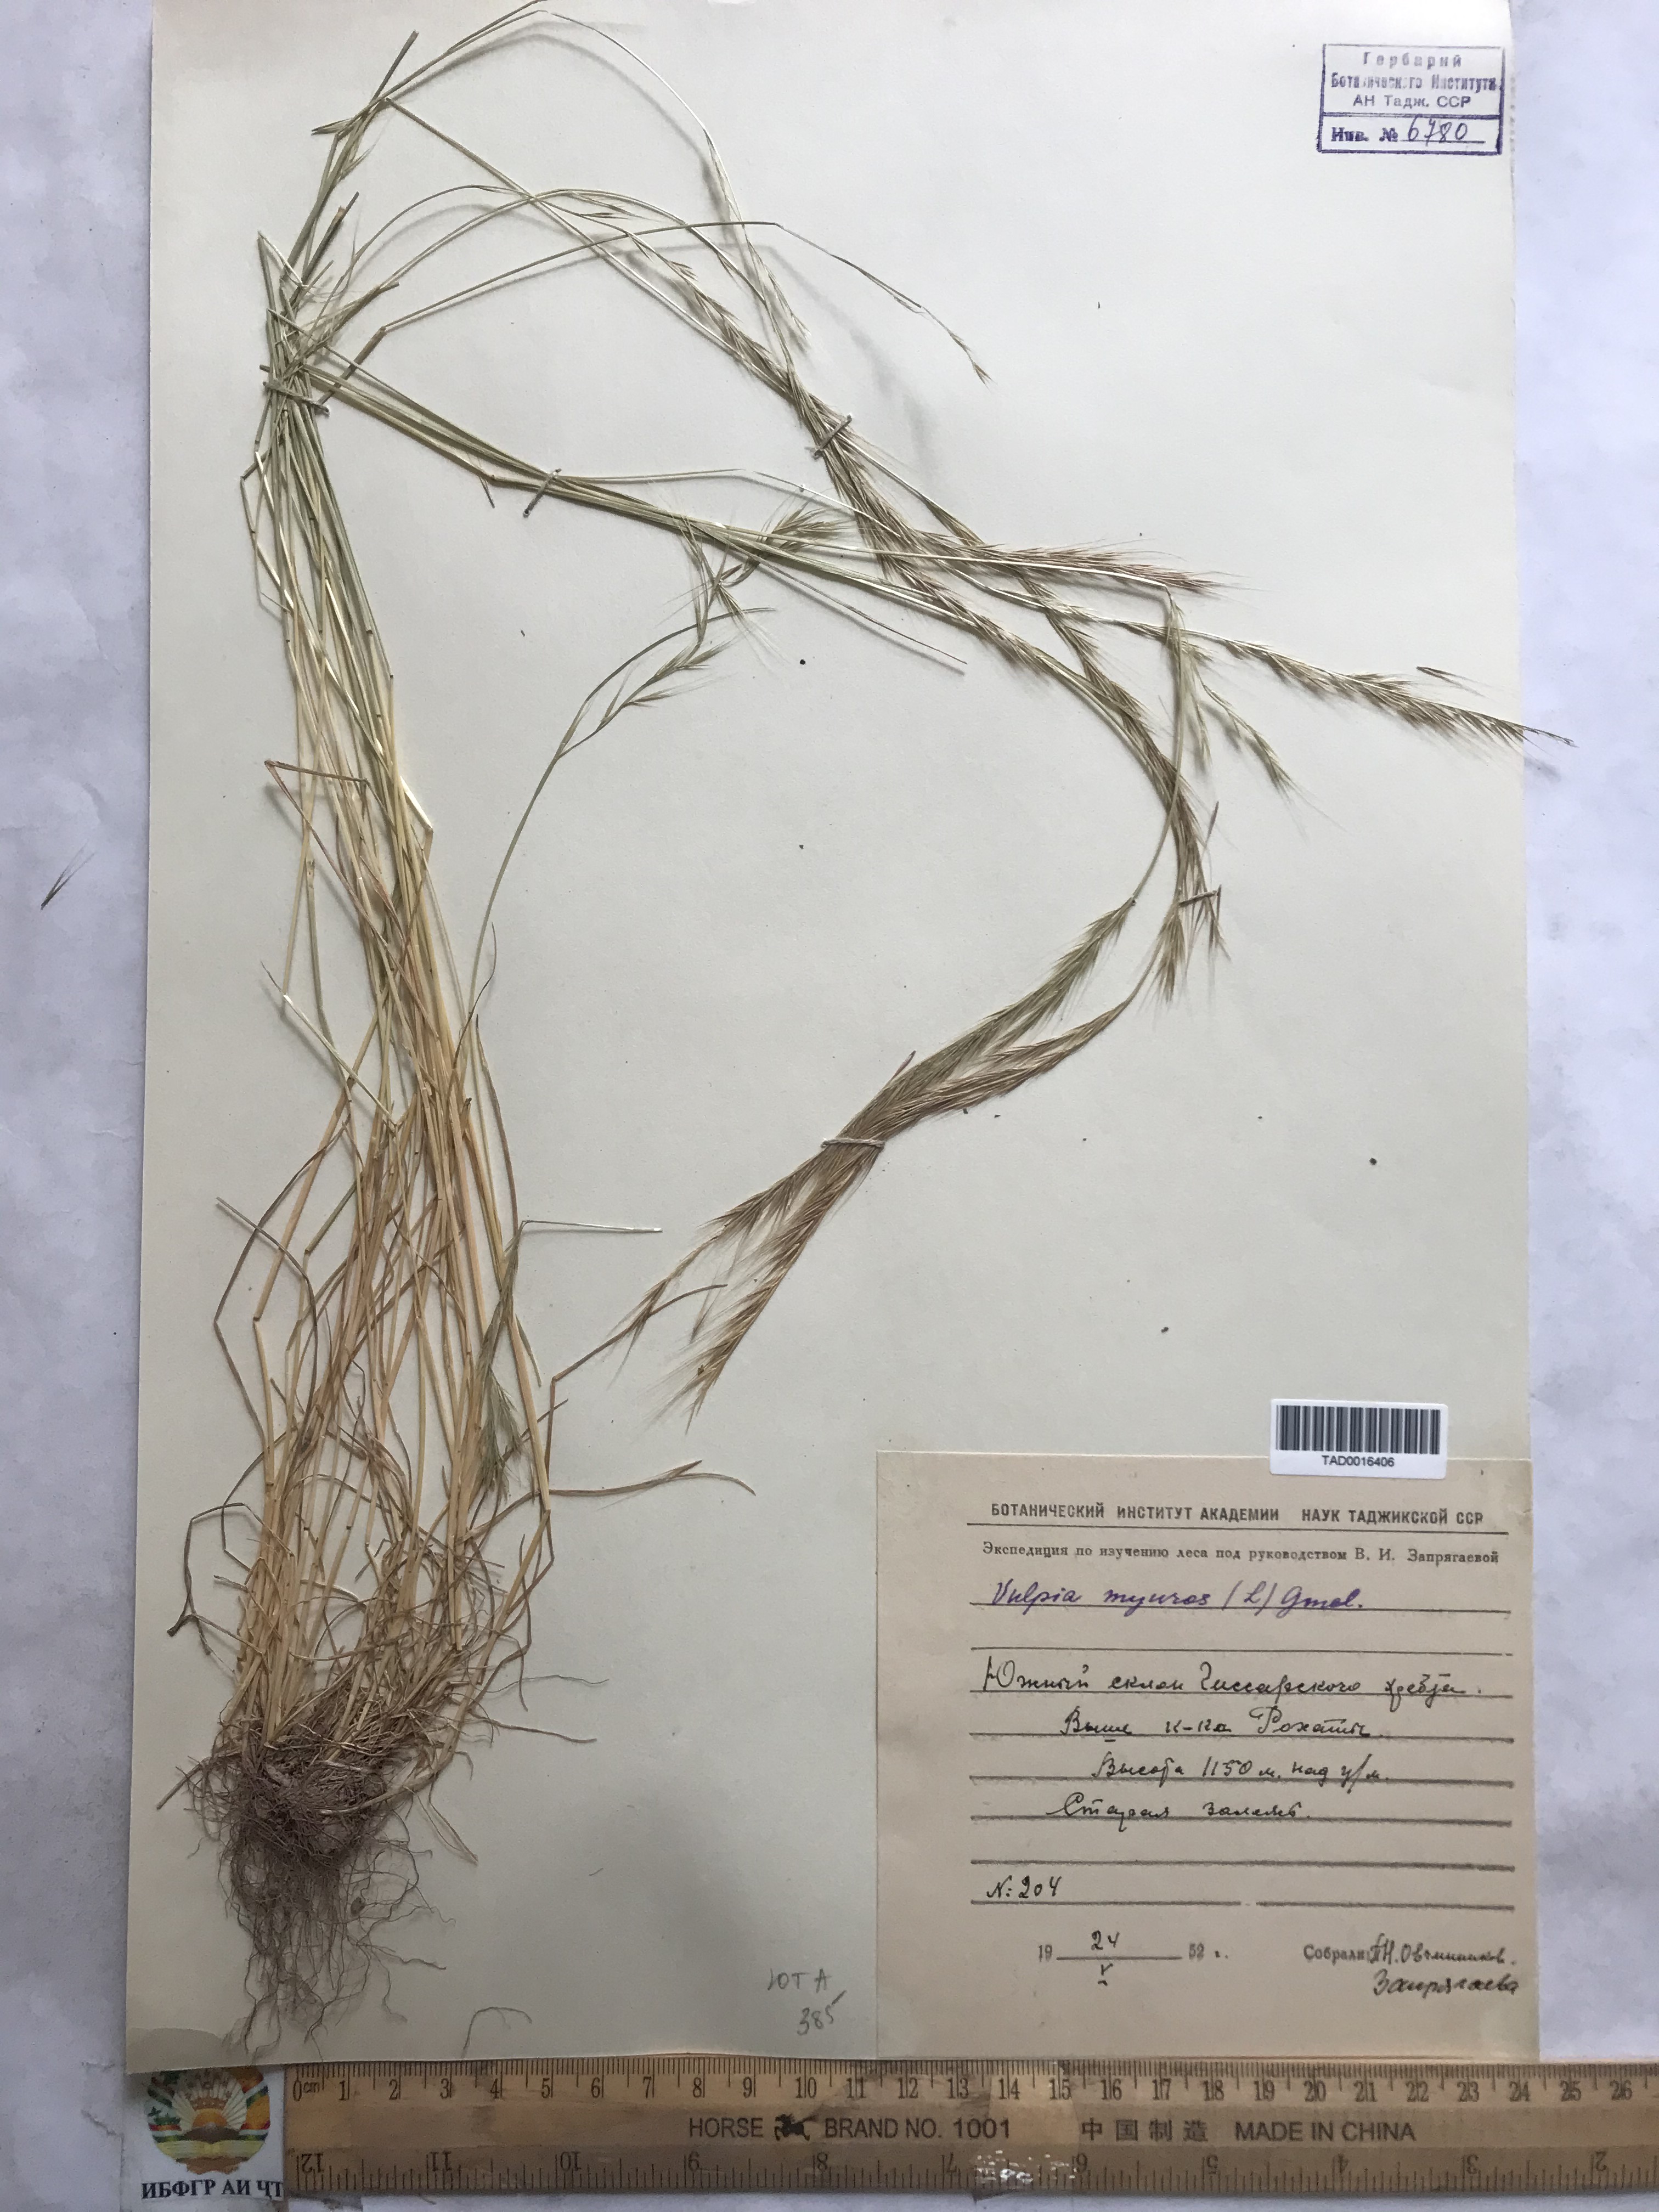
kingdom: Plantae
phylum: Tracheophyta
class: Liliopsida
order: Poales
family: Poaceae
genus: Festuca
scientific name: Festuca myuros
